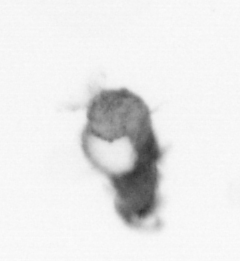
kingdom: Animalia
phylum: Annelida
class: Polychaeta
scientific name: Polychaeta
